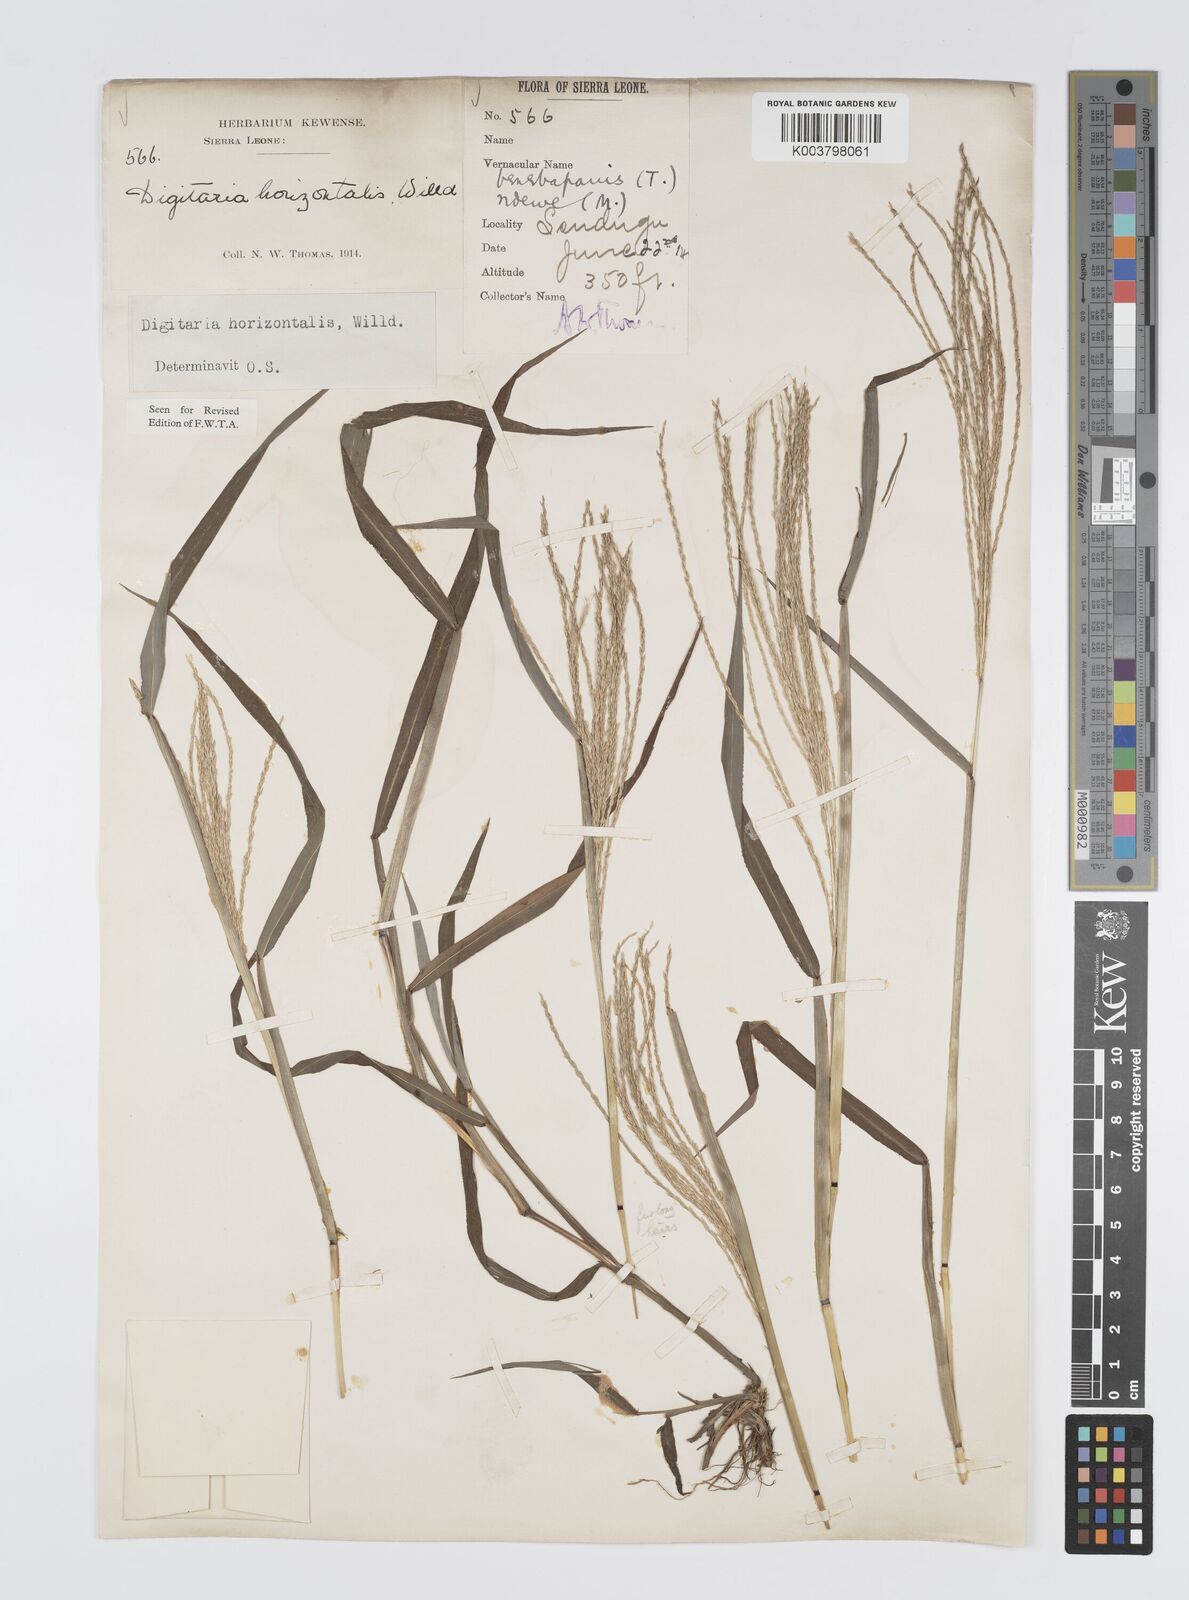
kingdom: Plantae
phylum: Tracheophyta
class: Liliopsida
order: Poales
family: Poaceae
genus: Digitaria
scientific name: Digitaria horizontalis
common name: Jamaican crabgrass
